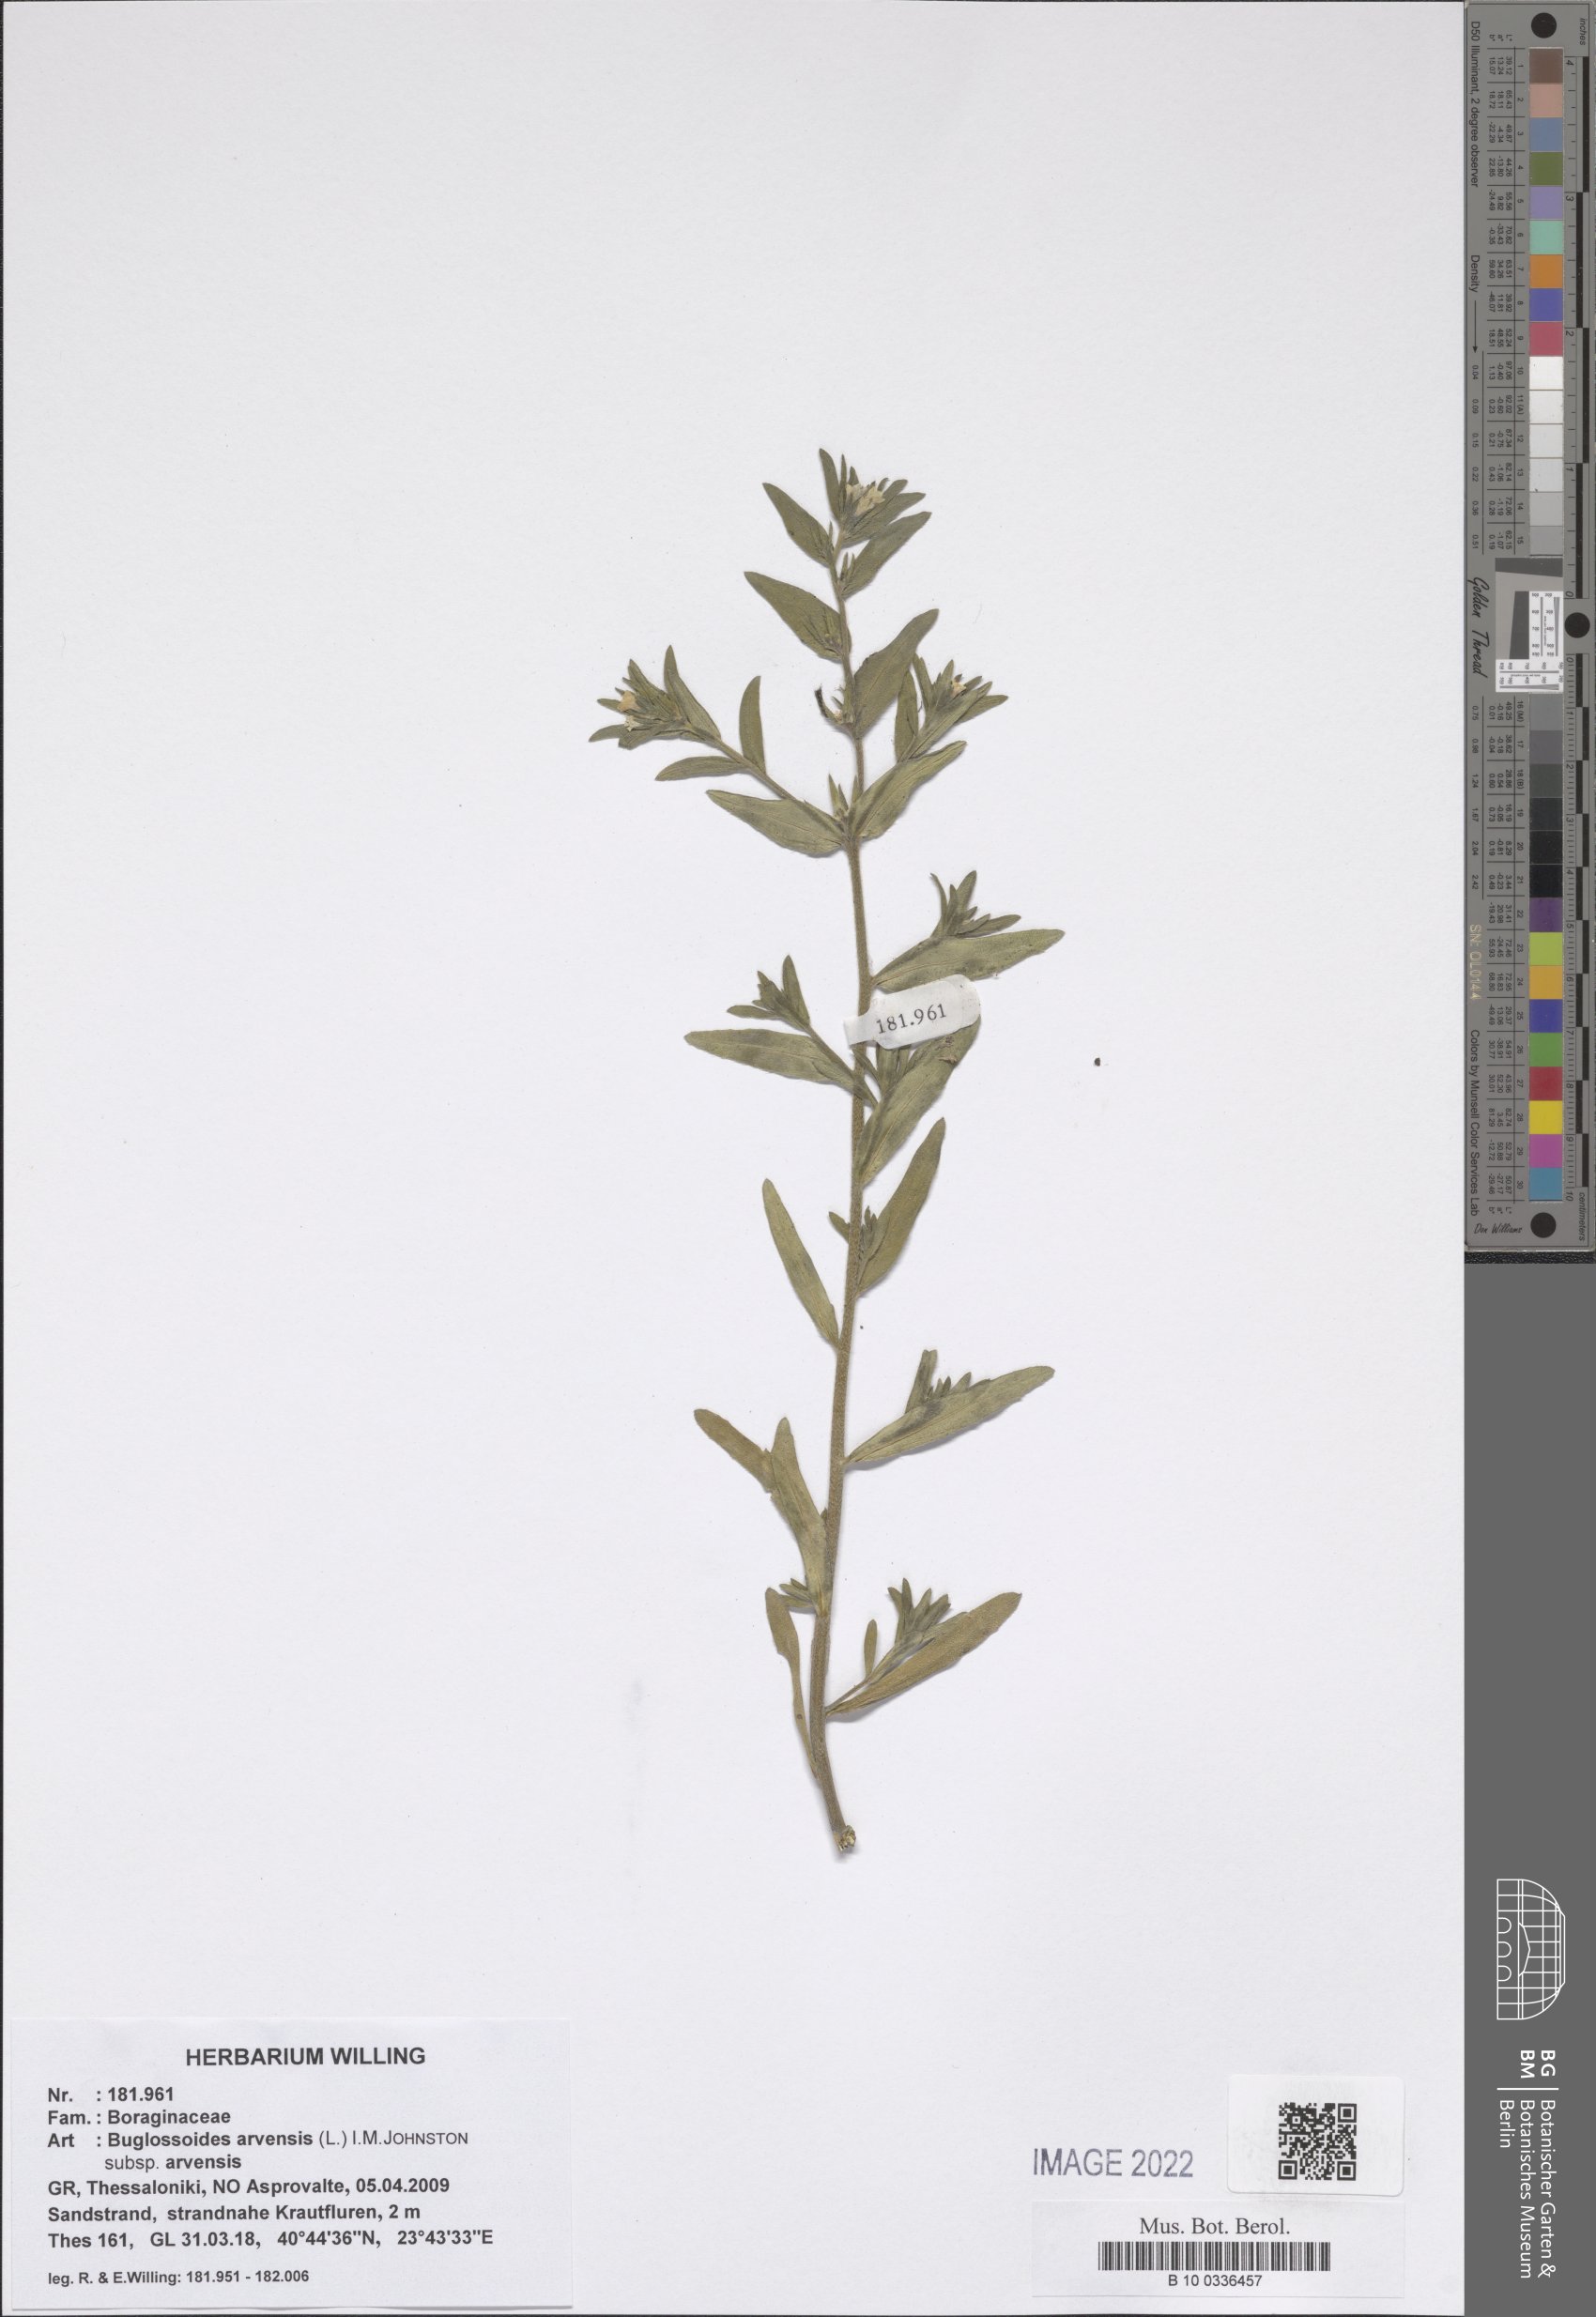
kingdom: Plantae
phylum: Tracheophyta
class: Magnoliopsida
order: Boraginales
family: Boraginaceae
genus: Buglossoides
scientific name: Buglossoides arvensis
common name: Corn gromwell
